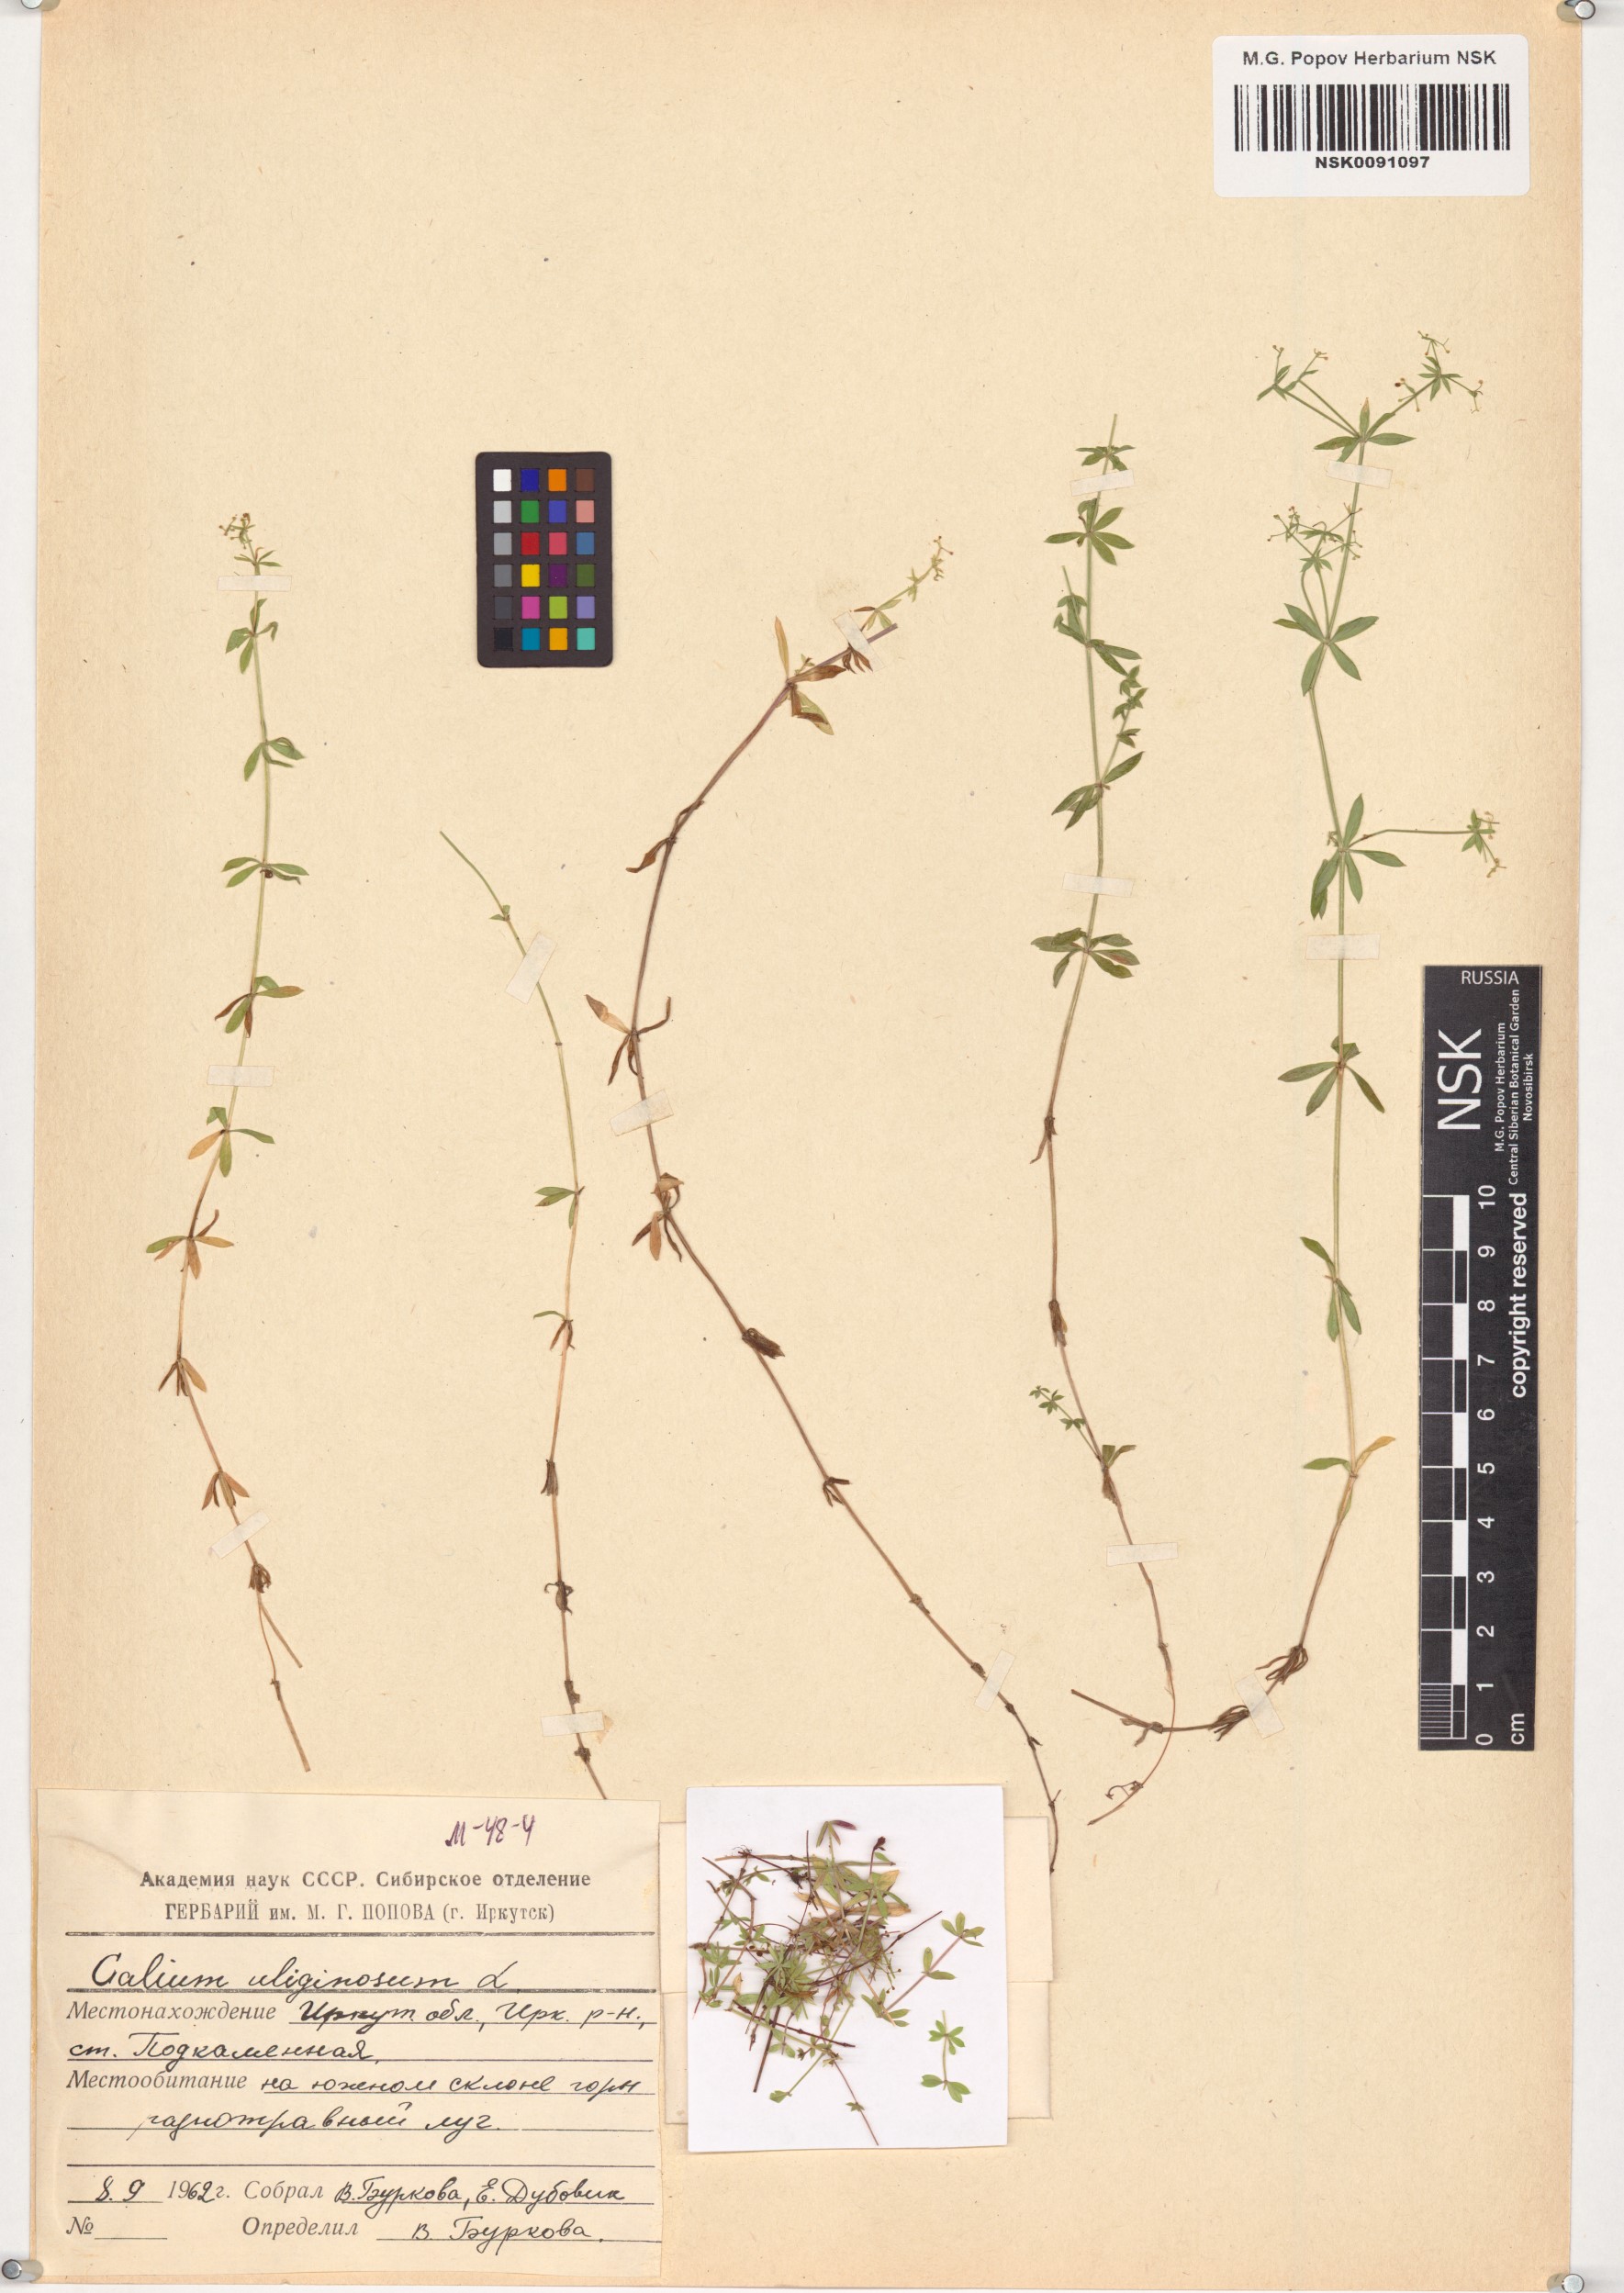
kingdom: Plantae
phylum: Tracheophyta
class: Magnoliopsida
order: Gentianales
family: Rubiaceae
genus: Galium
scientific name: Galium uliginosum
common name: Fen bedstraw
